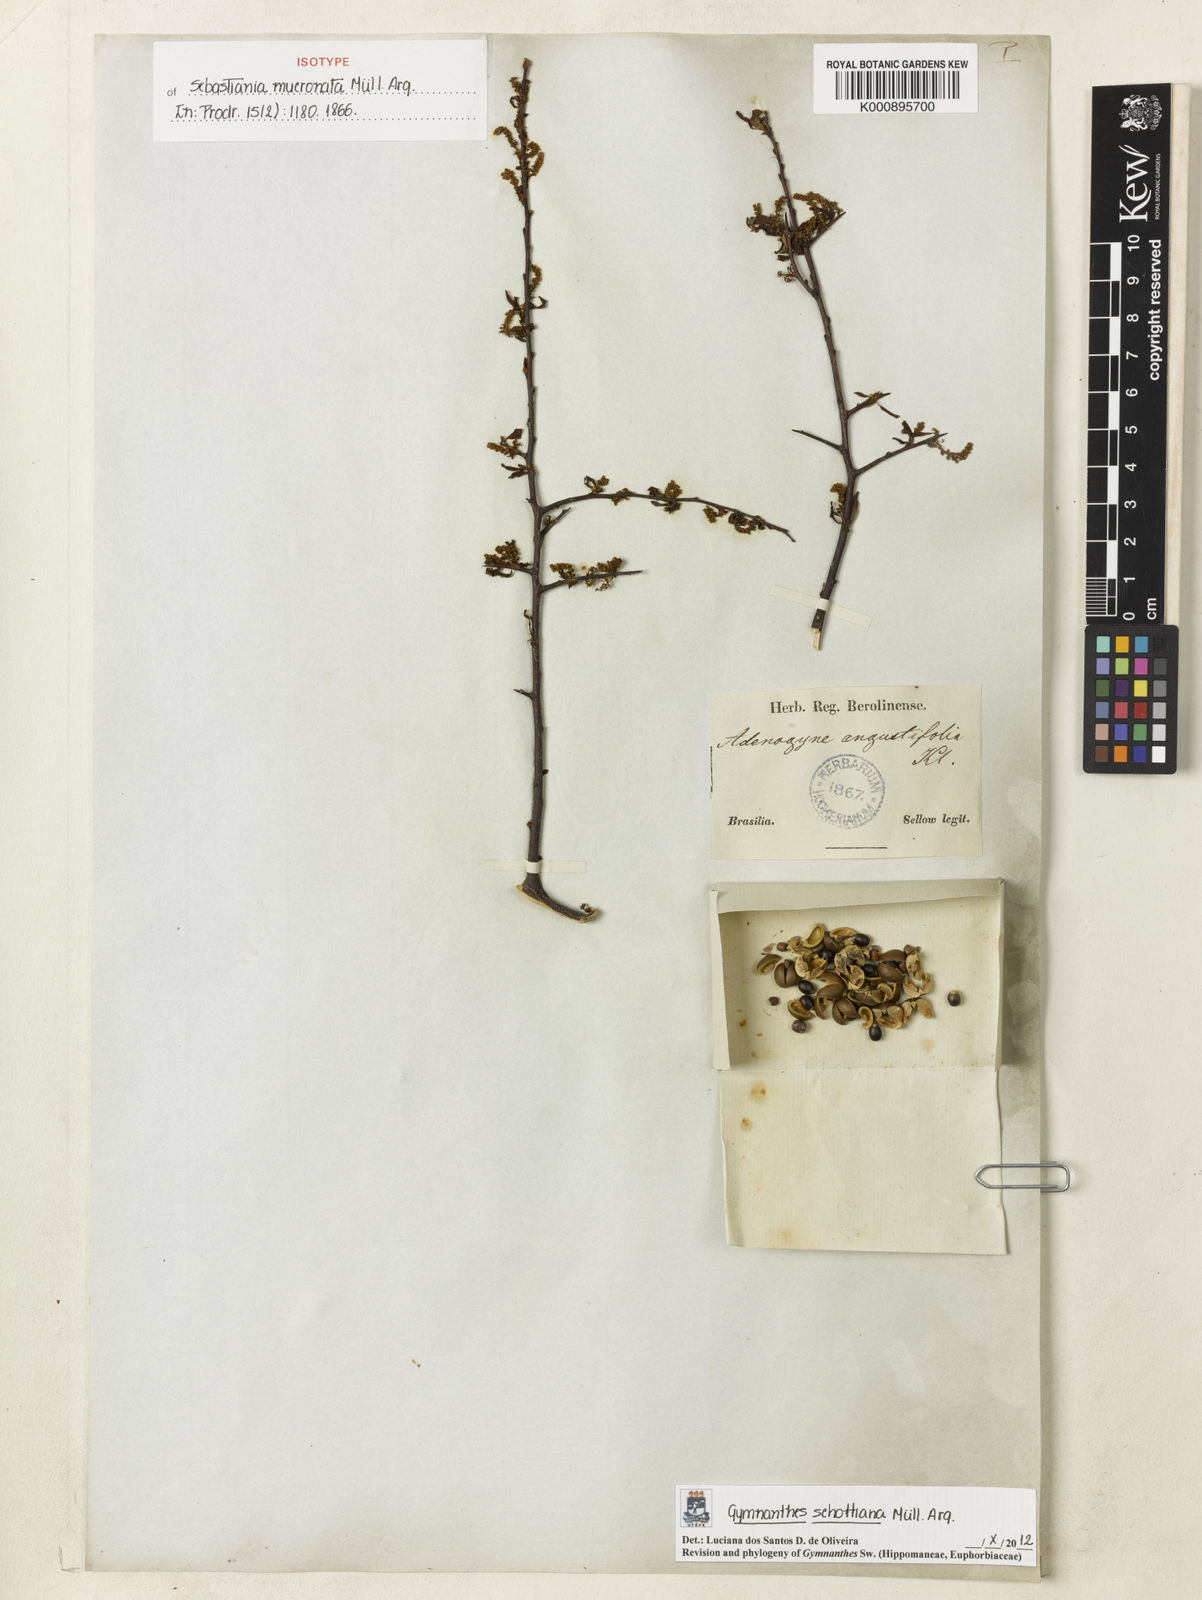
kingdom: Plantae
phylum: Tracheophyta
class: Magnoliopsida
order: Malpighiales
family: Euphorbiaceae
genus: Gymnanthes
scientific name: Gymnanthes
